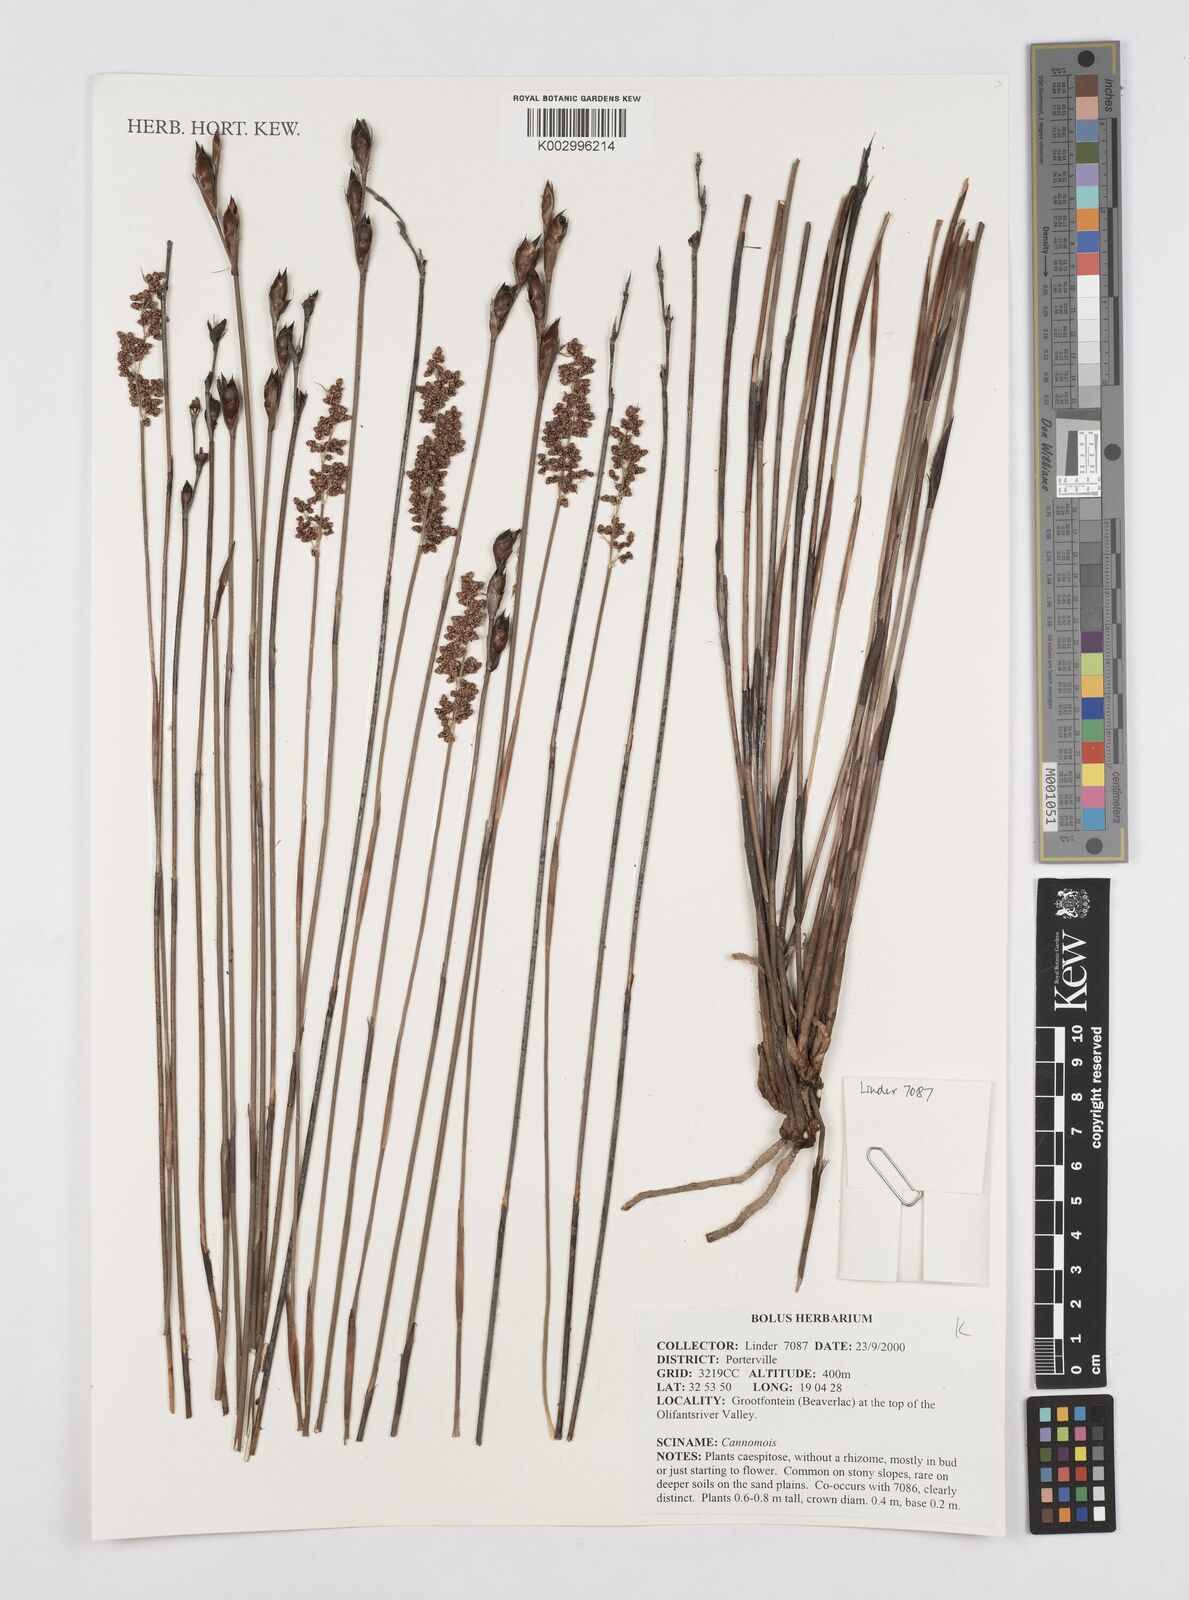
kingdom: Plantae
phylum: Tracheophyta
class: Liliopsida
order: Poales
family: Restionaceae
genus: Cannomois
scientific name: Cannomois
